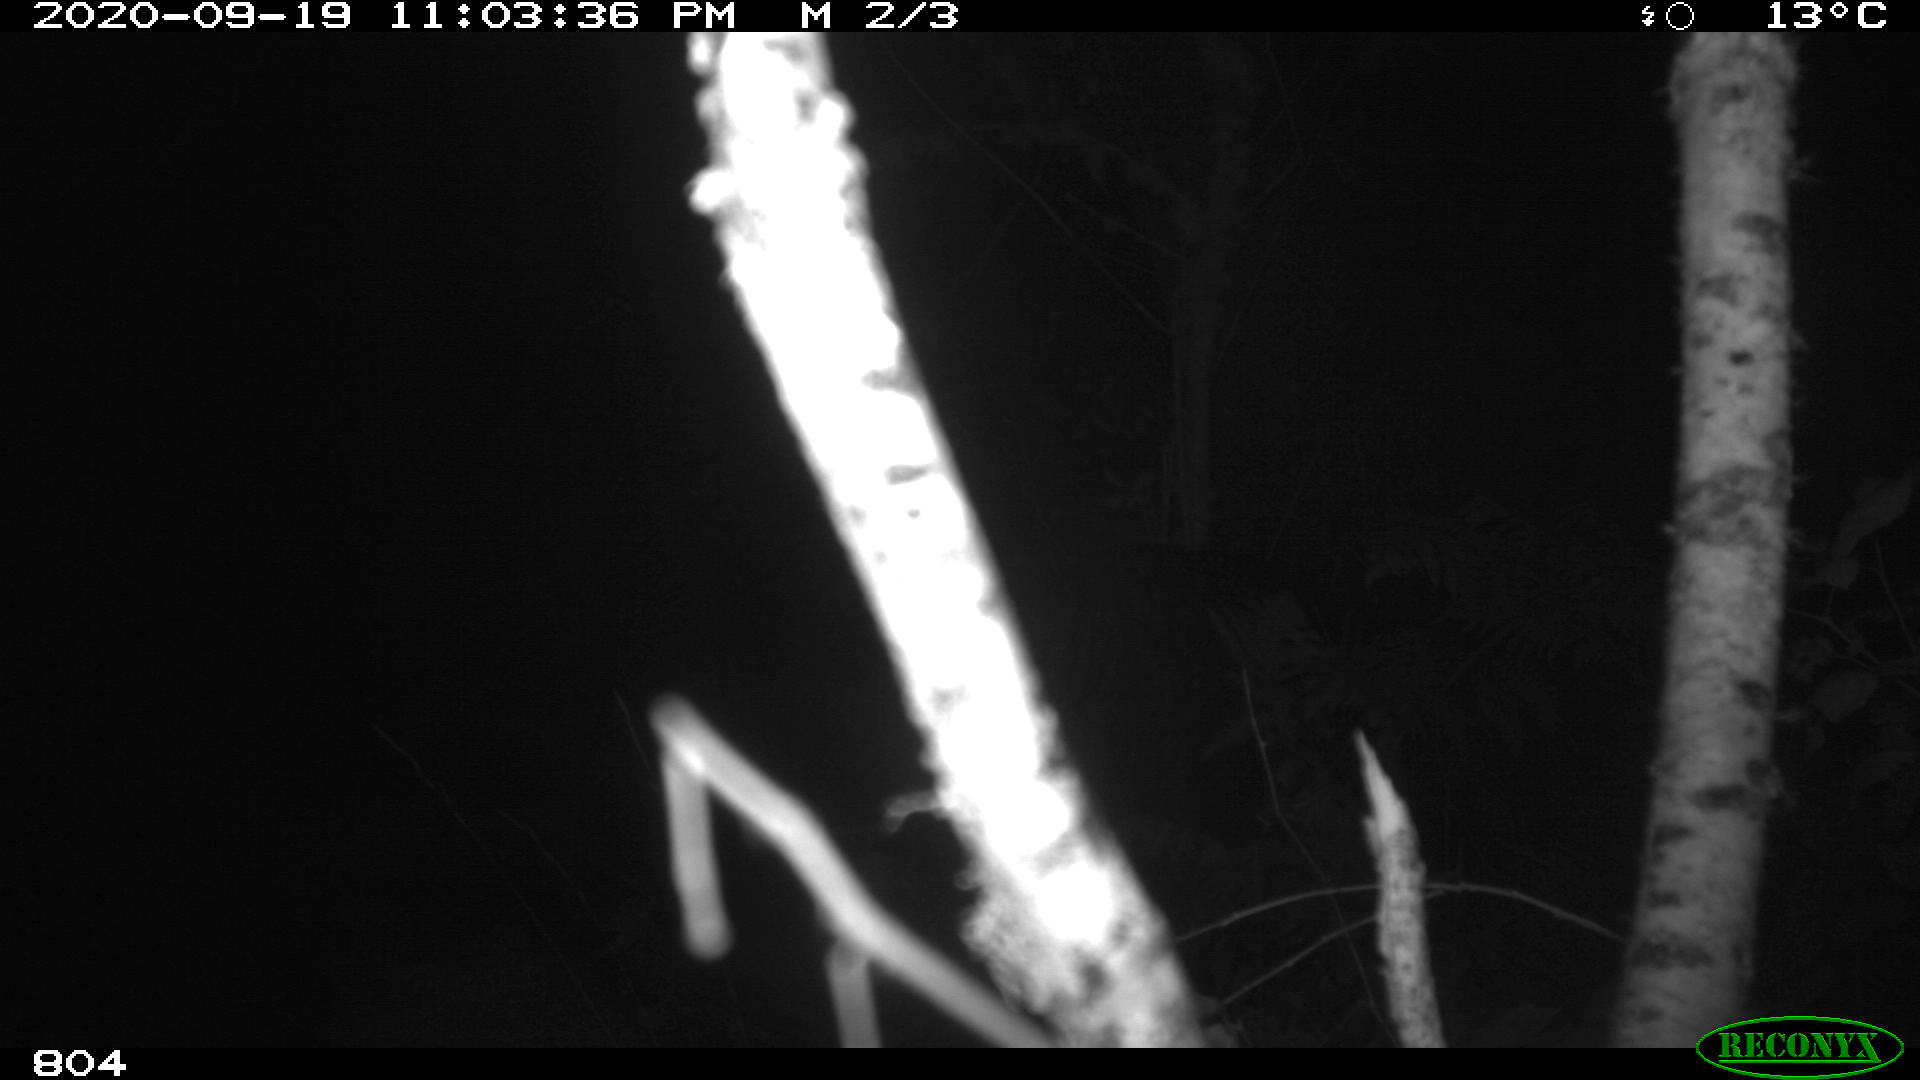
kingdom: Animalia
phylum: Chordata
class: Mammalia
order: Artiodactyla
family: Suidae
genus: Sus
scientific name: Sus scrofa
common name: Wild boar
